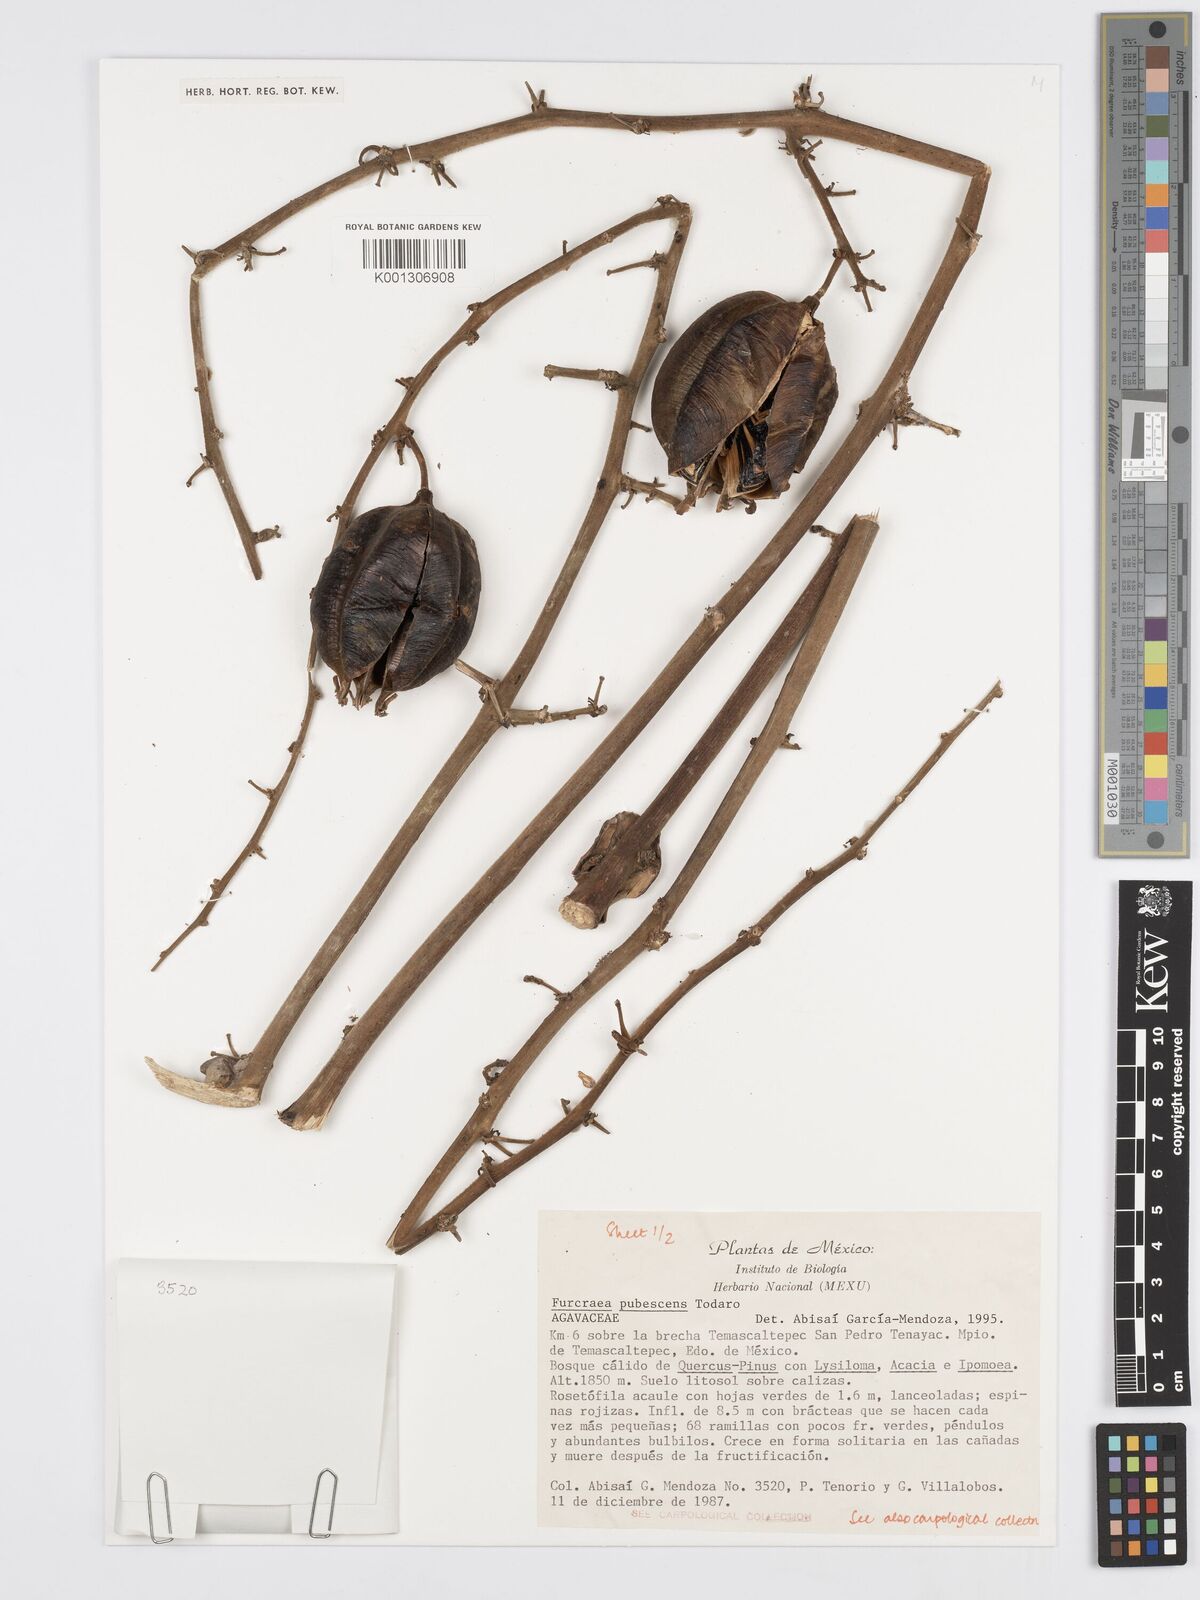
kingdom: Plantae
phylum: Tracheophyta
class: Liliopsida
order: Asparagales
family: Asparagaceae
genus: Furcraea
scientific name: Furcraea pubescens
